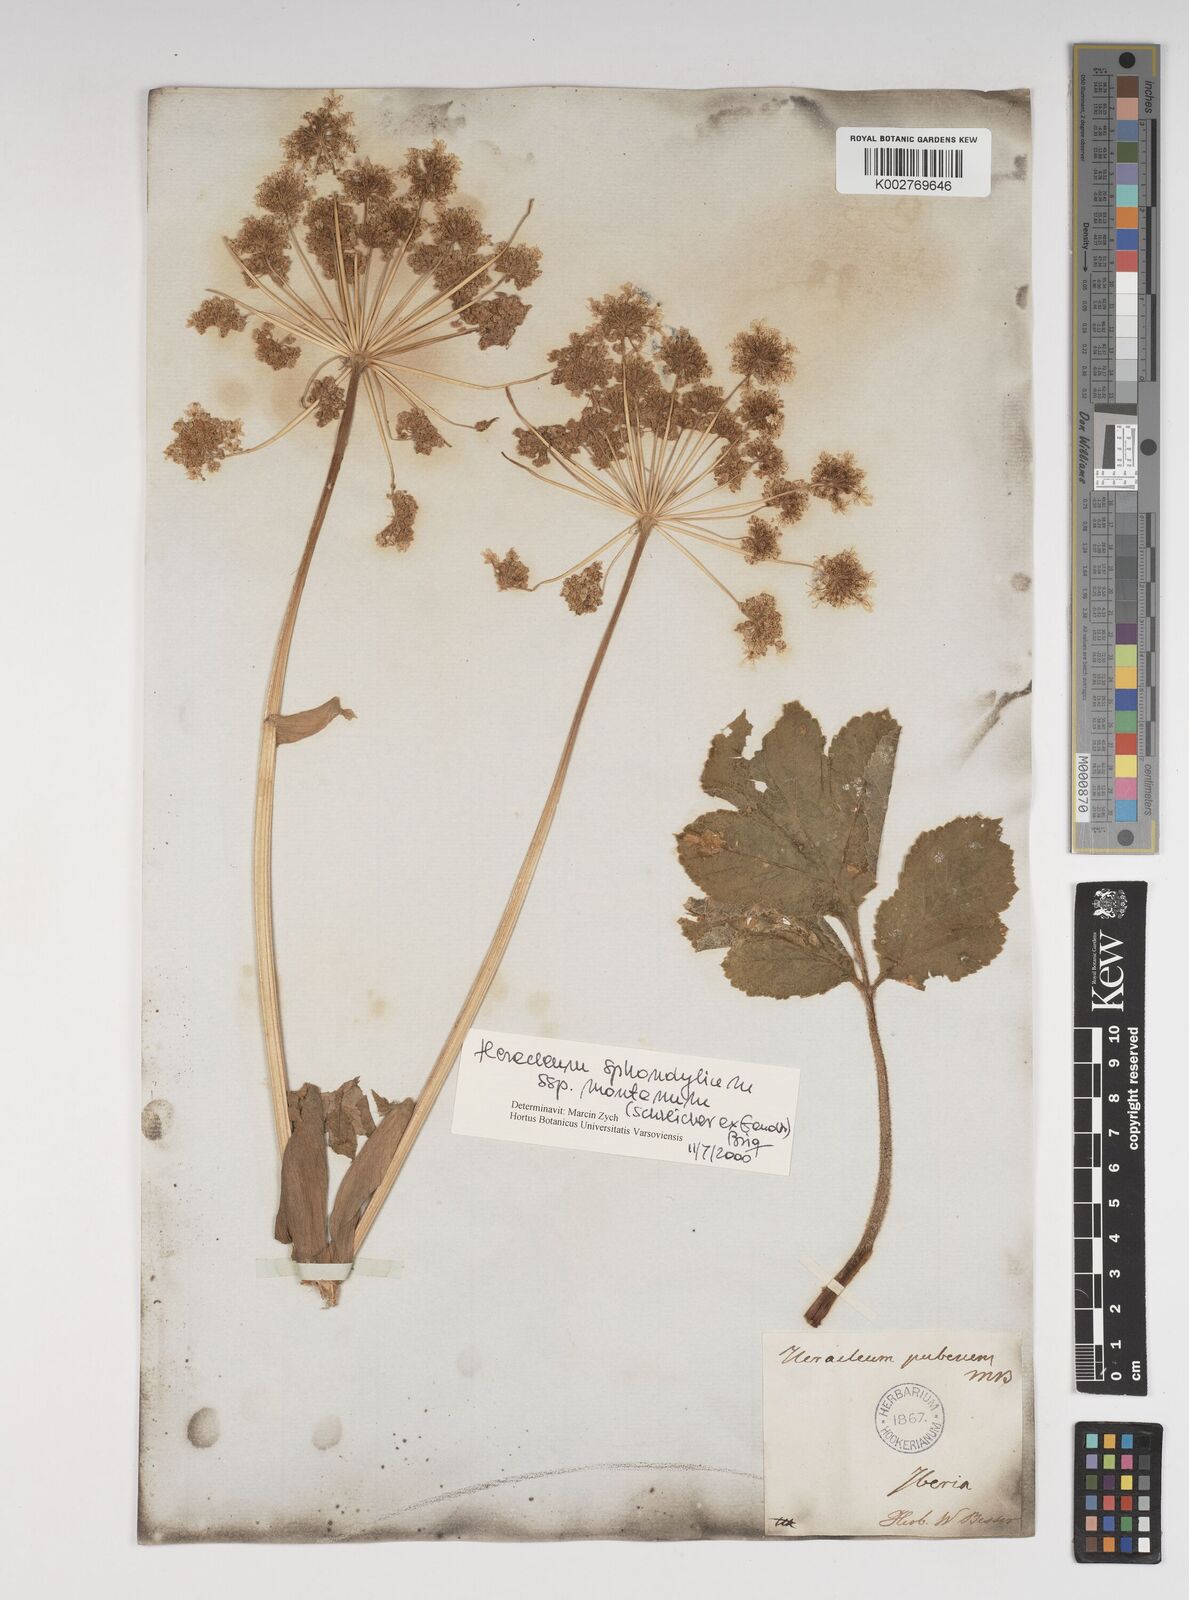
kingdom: Plantae
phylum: Tracheophyta
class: Magnoliopsida
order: Apiales
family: Apiaceae
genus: Heracleum
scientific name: Heracleum pubescens
